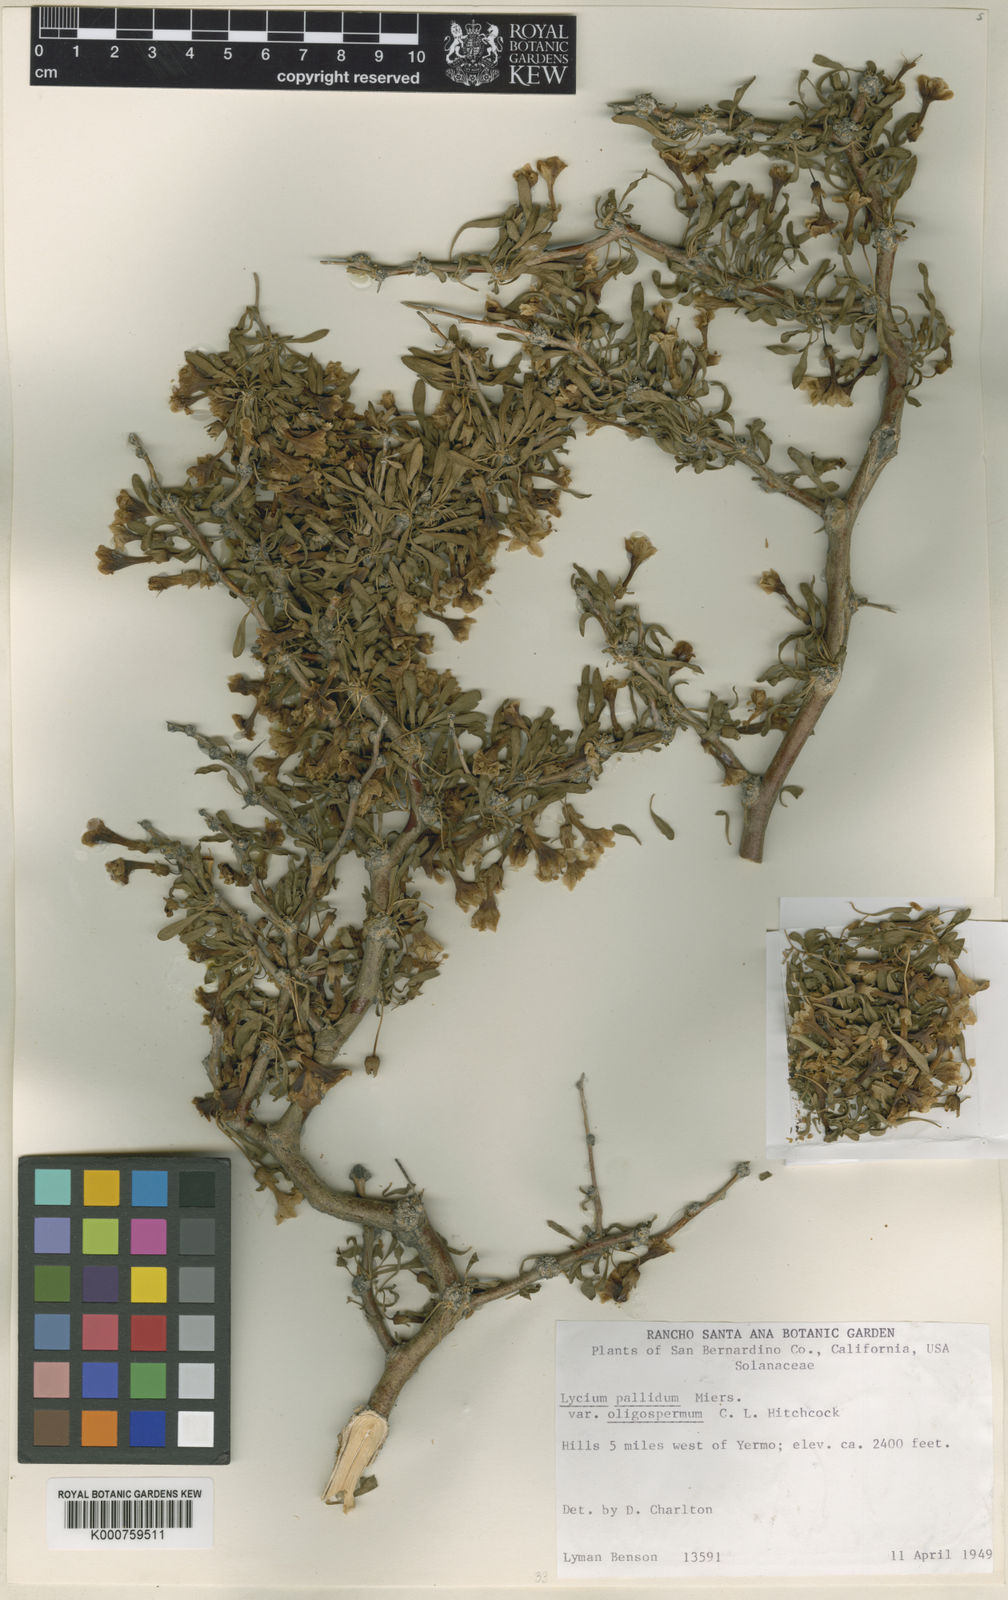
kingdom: Plantae
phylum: Tracheophyta
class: Magnoliopsida
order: Solanales
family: Solanaceae
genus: Lycium
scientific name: Lycium cooperi
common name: Peachthorn
